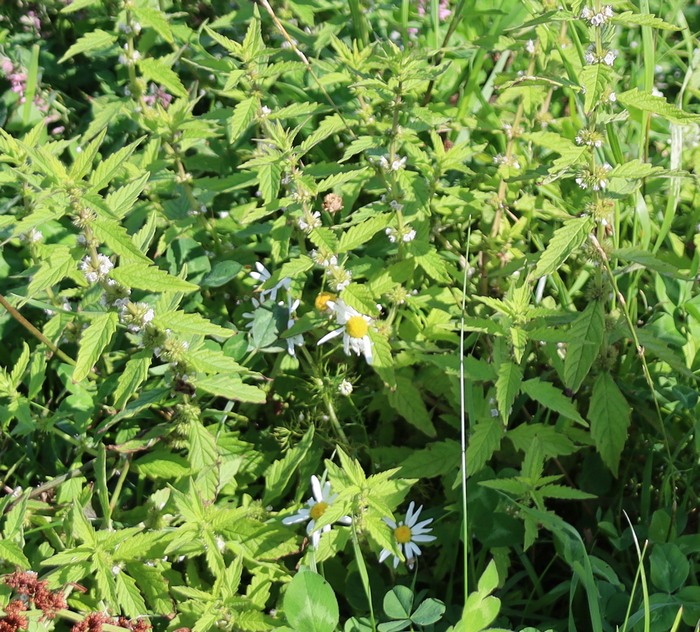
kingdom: Plantae
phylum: Tracheophyta
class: Magnoliopsida
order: Lamiales
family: Lamiaceae
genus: Lycopus
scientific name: Lycopus europaeus
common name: Sværtevæld
